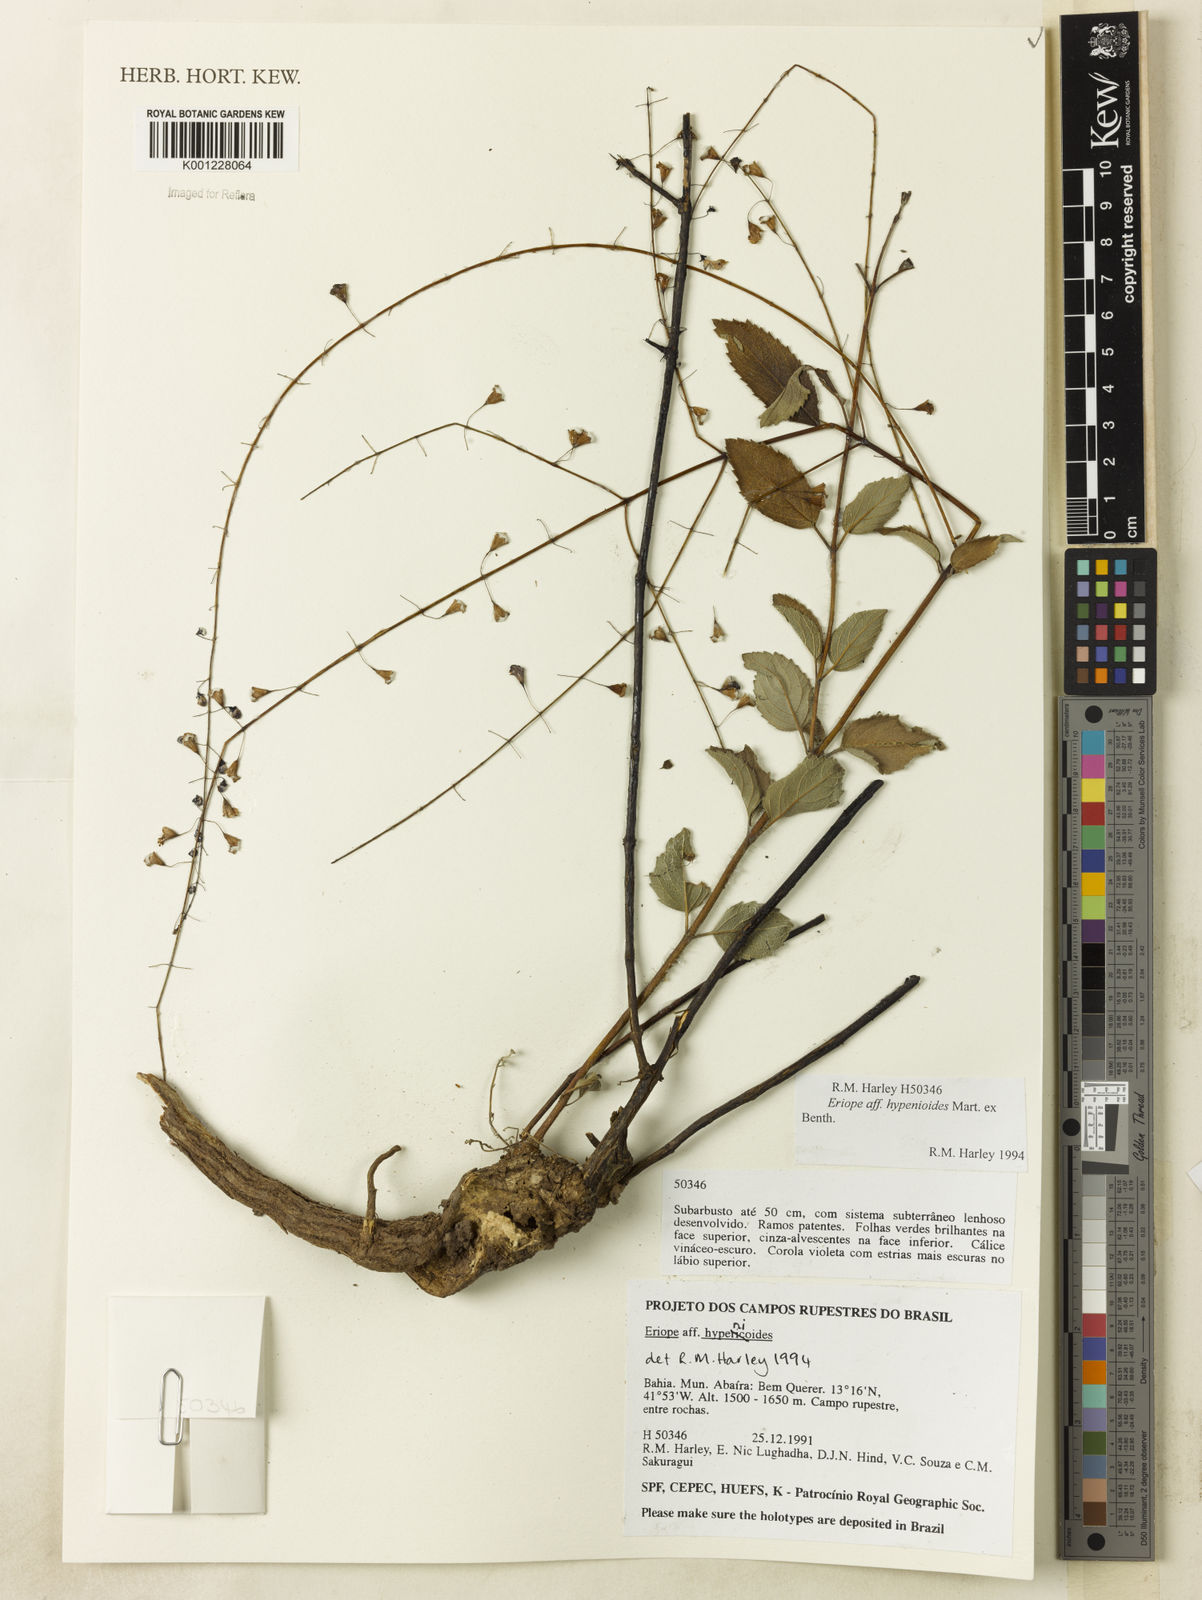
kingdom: Plantae
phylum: Tracheophyta
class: Magnoliopsida
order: Lamiales
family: Lamiaceae
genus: Eriope
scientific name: Eriope hypenioides
